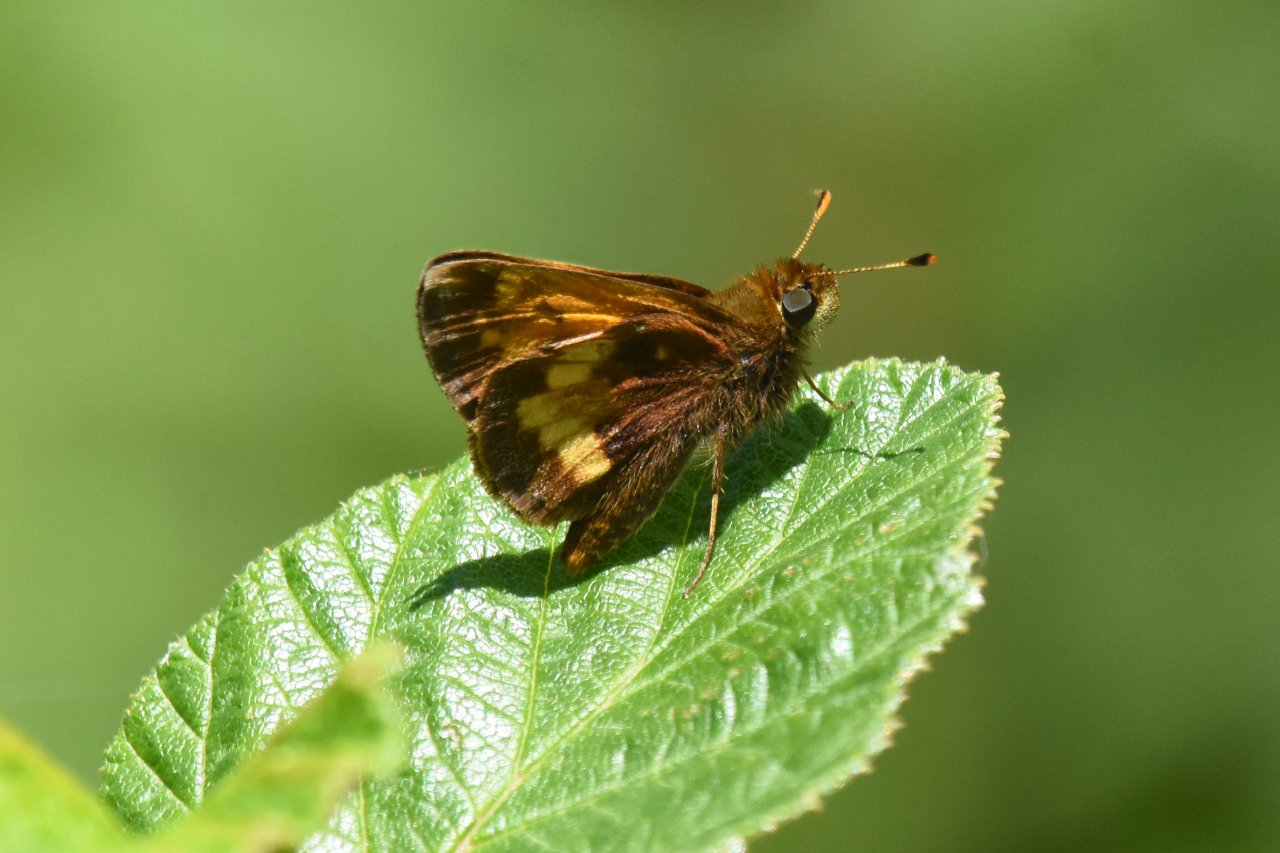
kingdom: Animalia
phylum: Arthropoda
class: Insecta
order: Lepidoptera
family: Hesperiidae
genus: Lon
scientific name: Lon hobomok
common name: Hobomok Skipper
